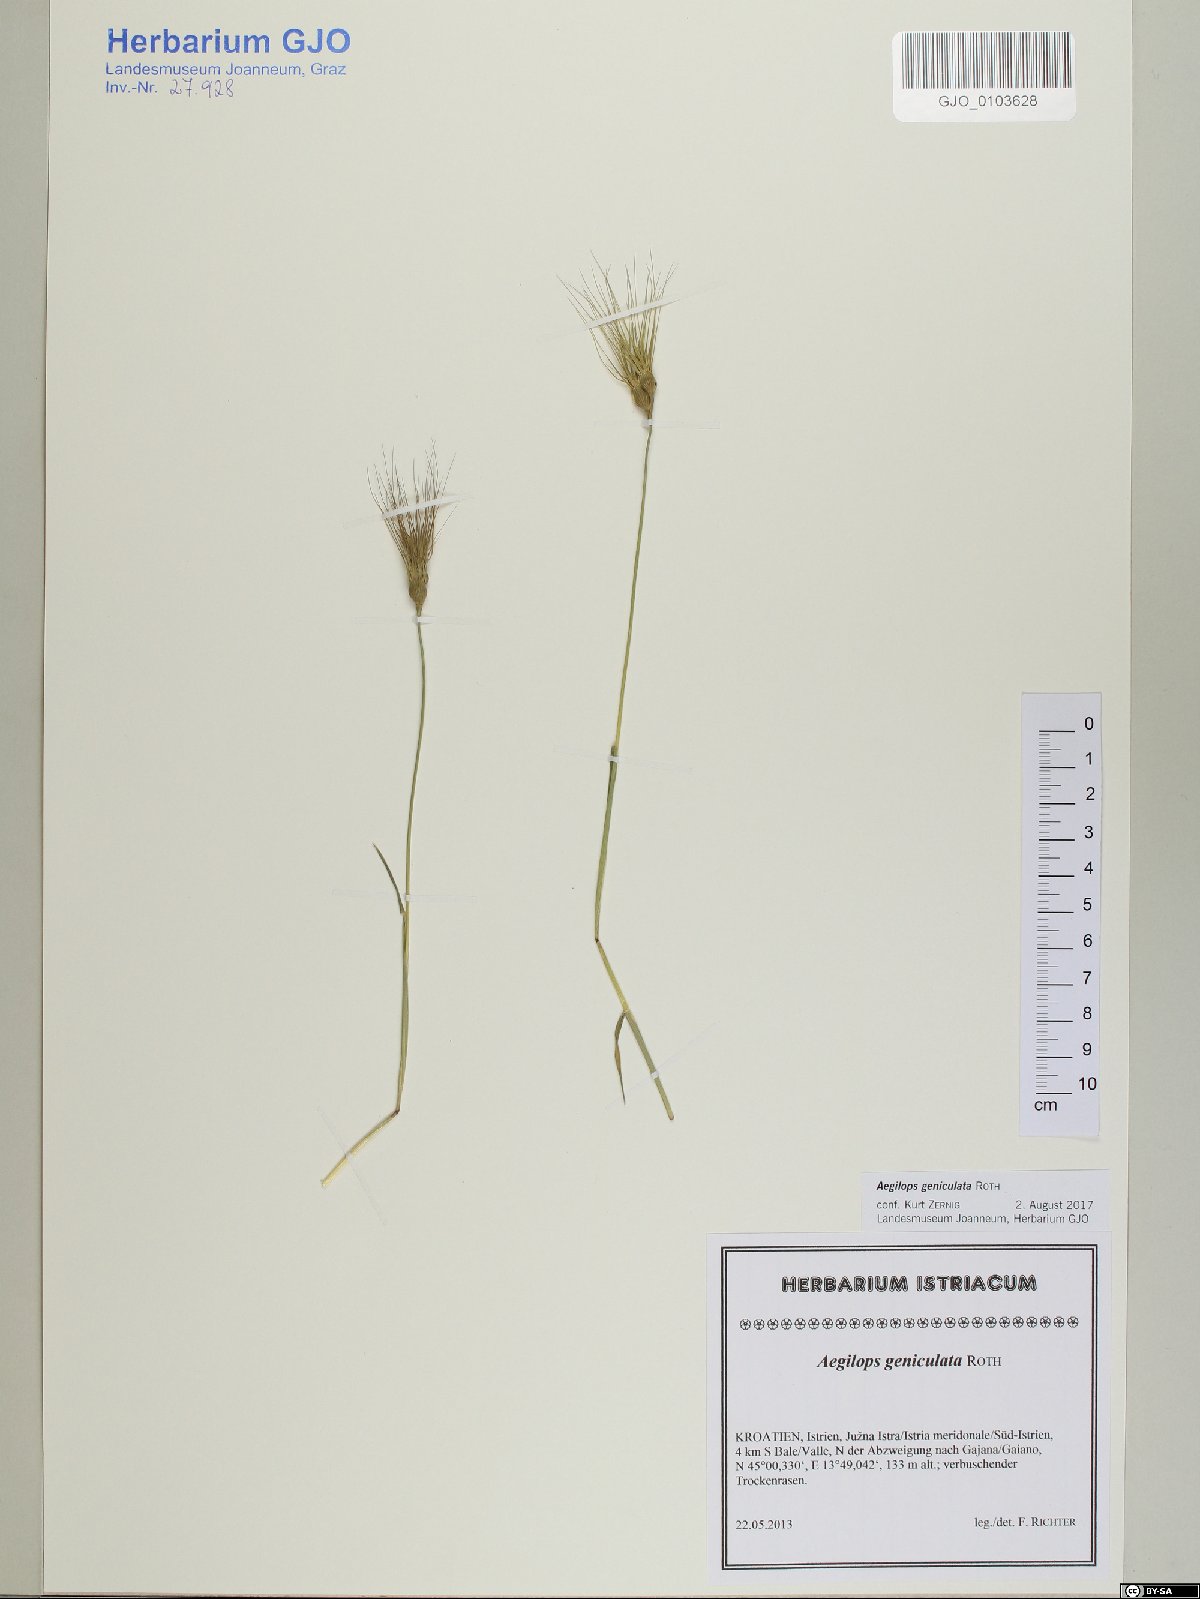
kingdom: Plantae
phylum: Tracheophyta
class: Liliopsida
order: Poales
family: Poaceae
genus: Aegilops
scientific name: Aegilops geniculata
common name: Ovate goat grass
